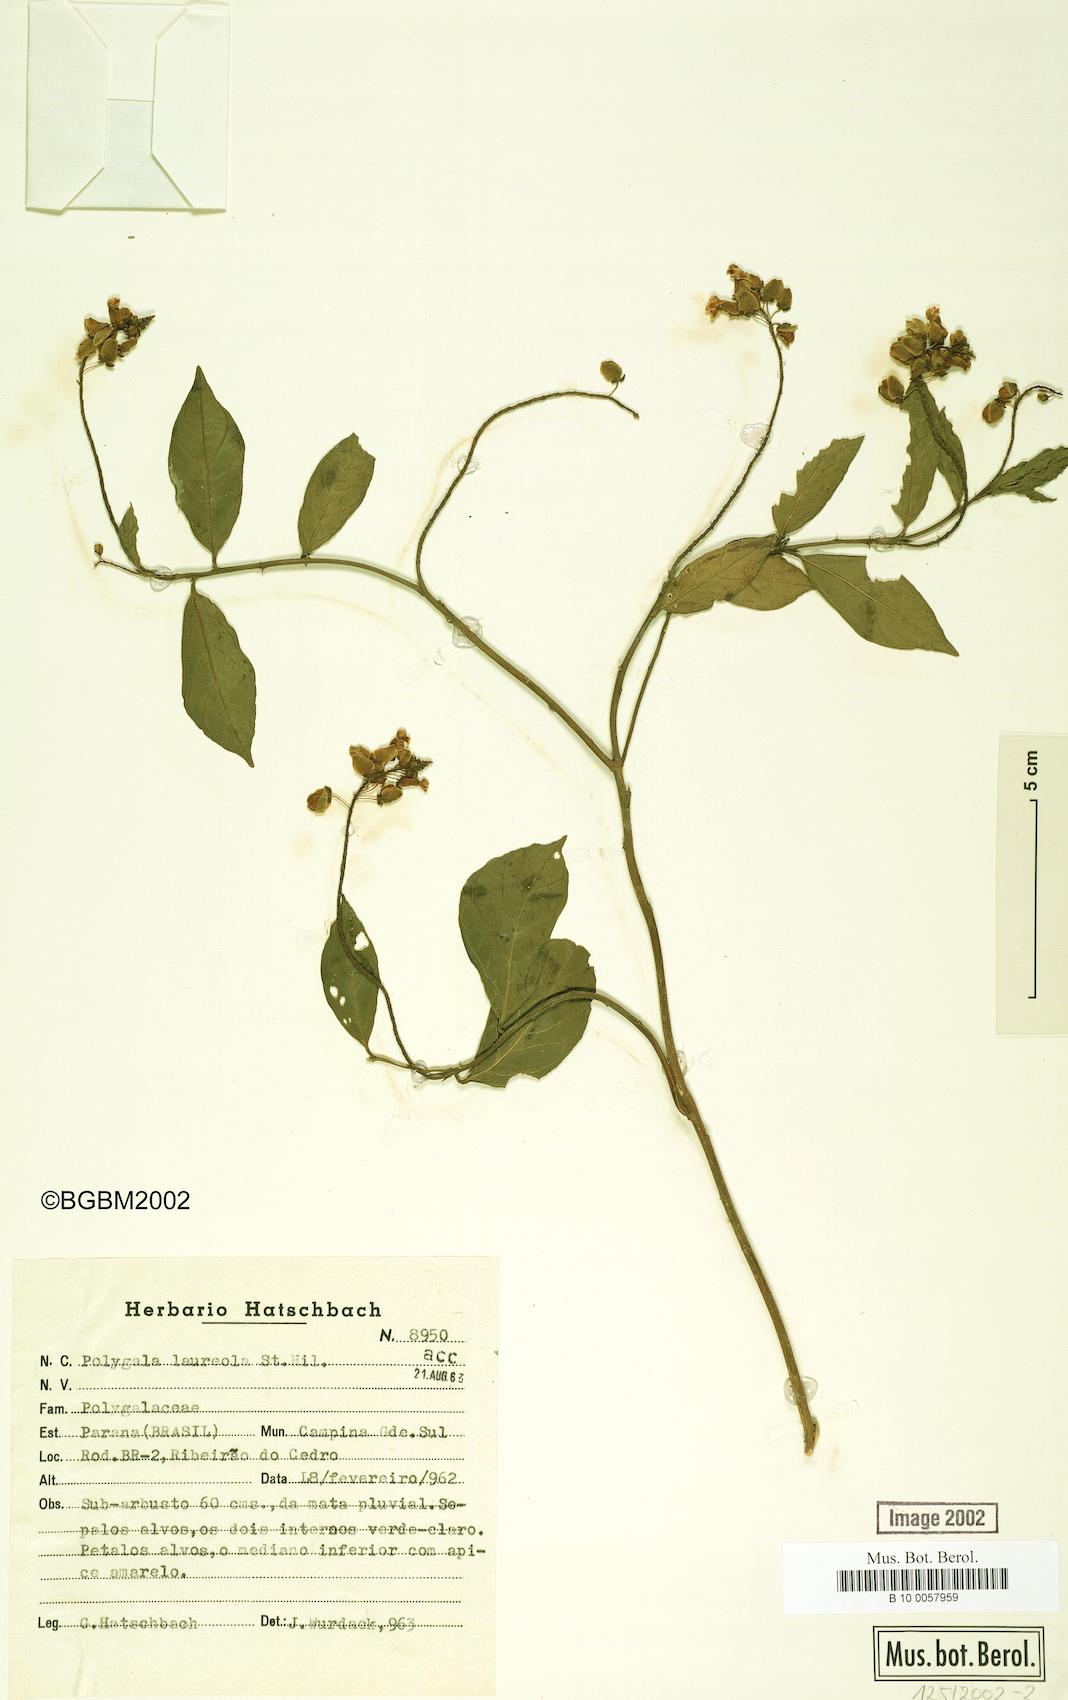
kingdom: Plantae
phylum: Tracheophyta
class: Magnoliopsida
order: Fabales
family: Polygalaceae
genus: Caamembeca
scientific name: Caamembeca salicifolia
